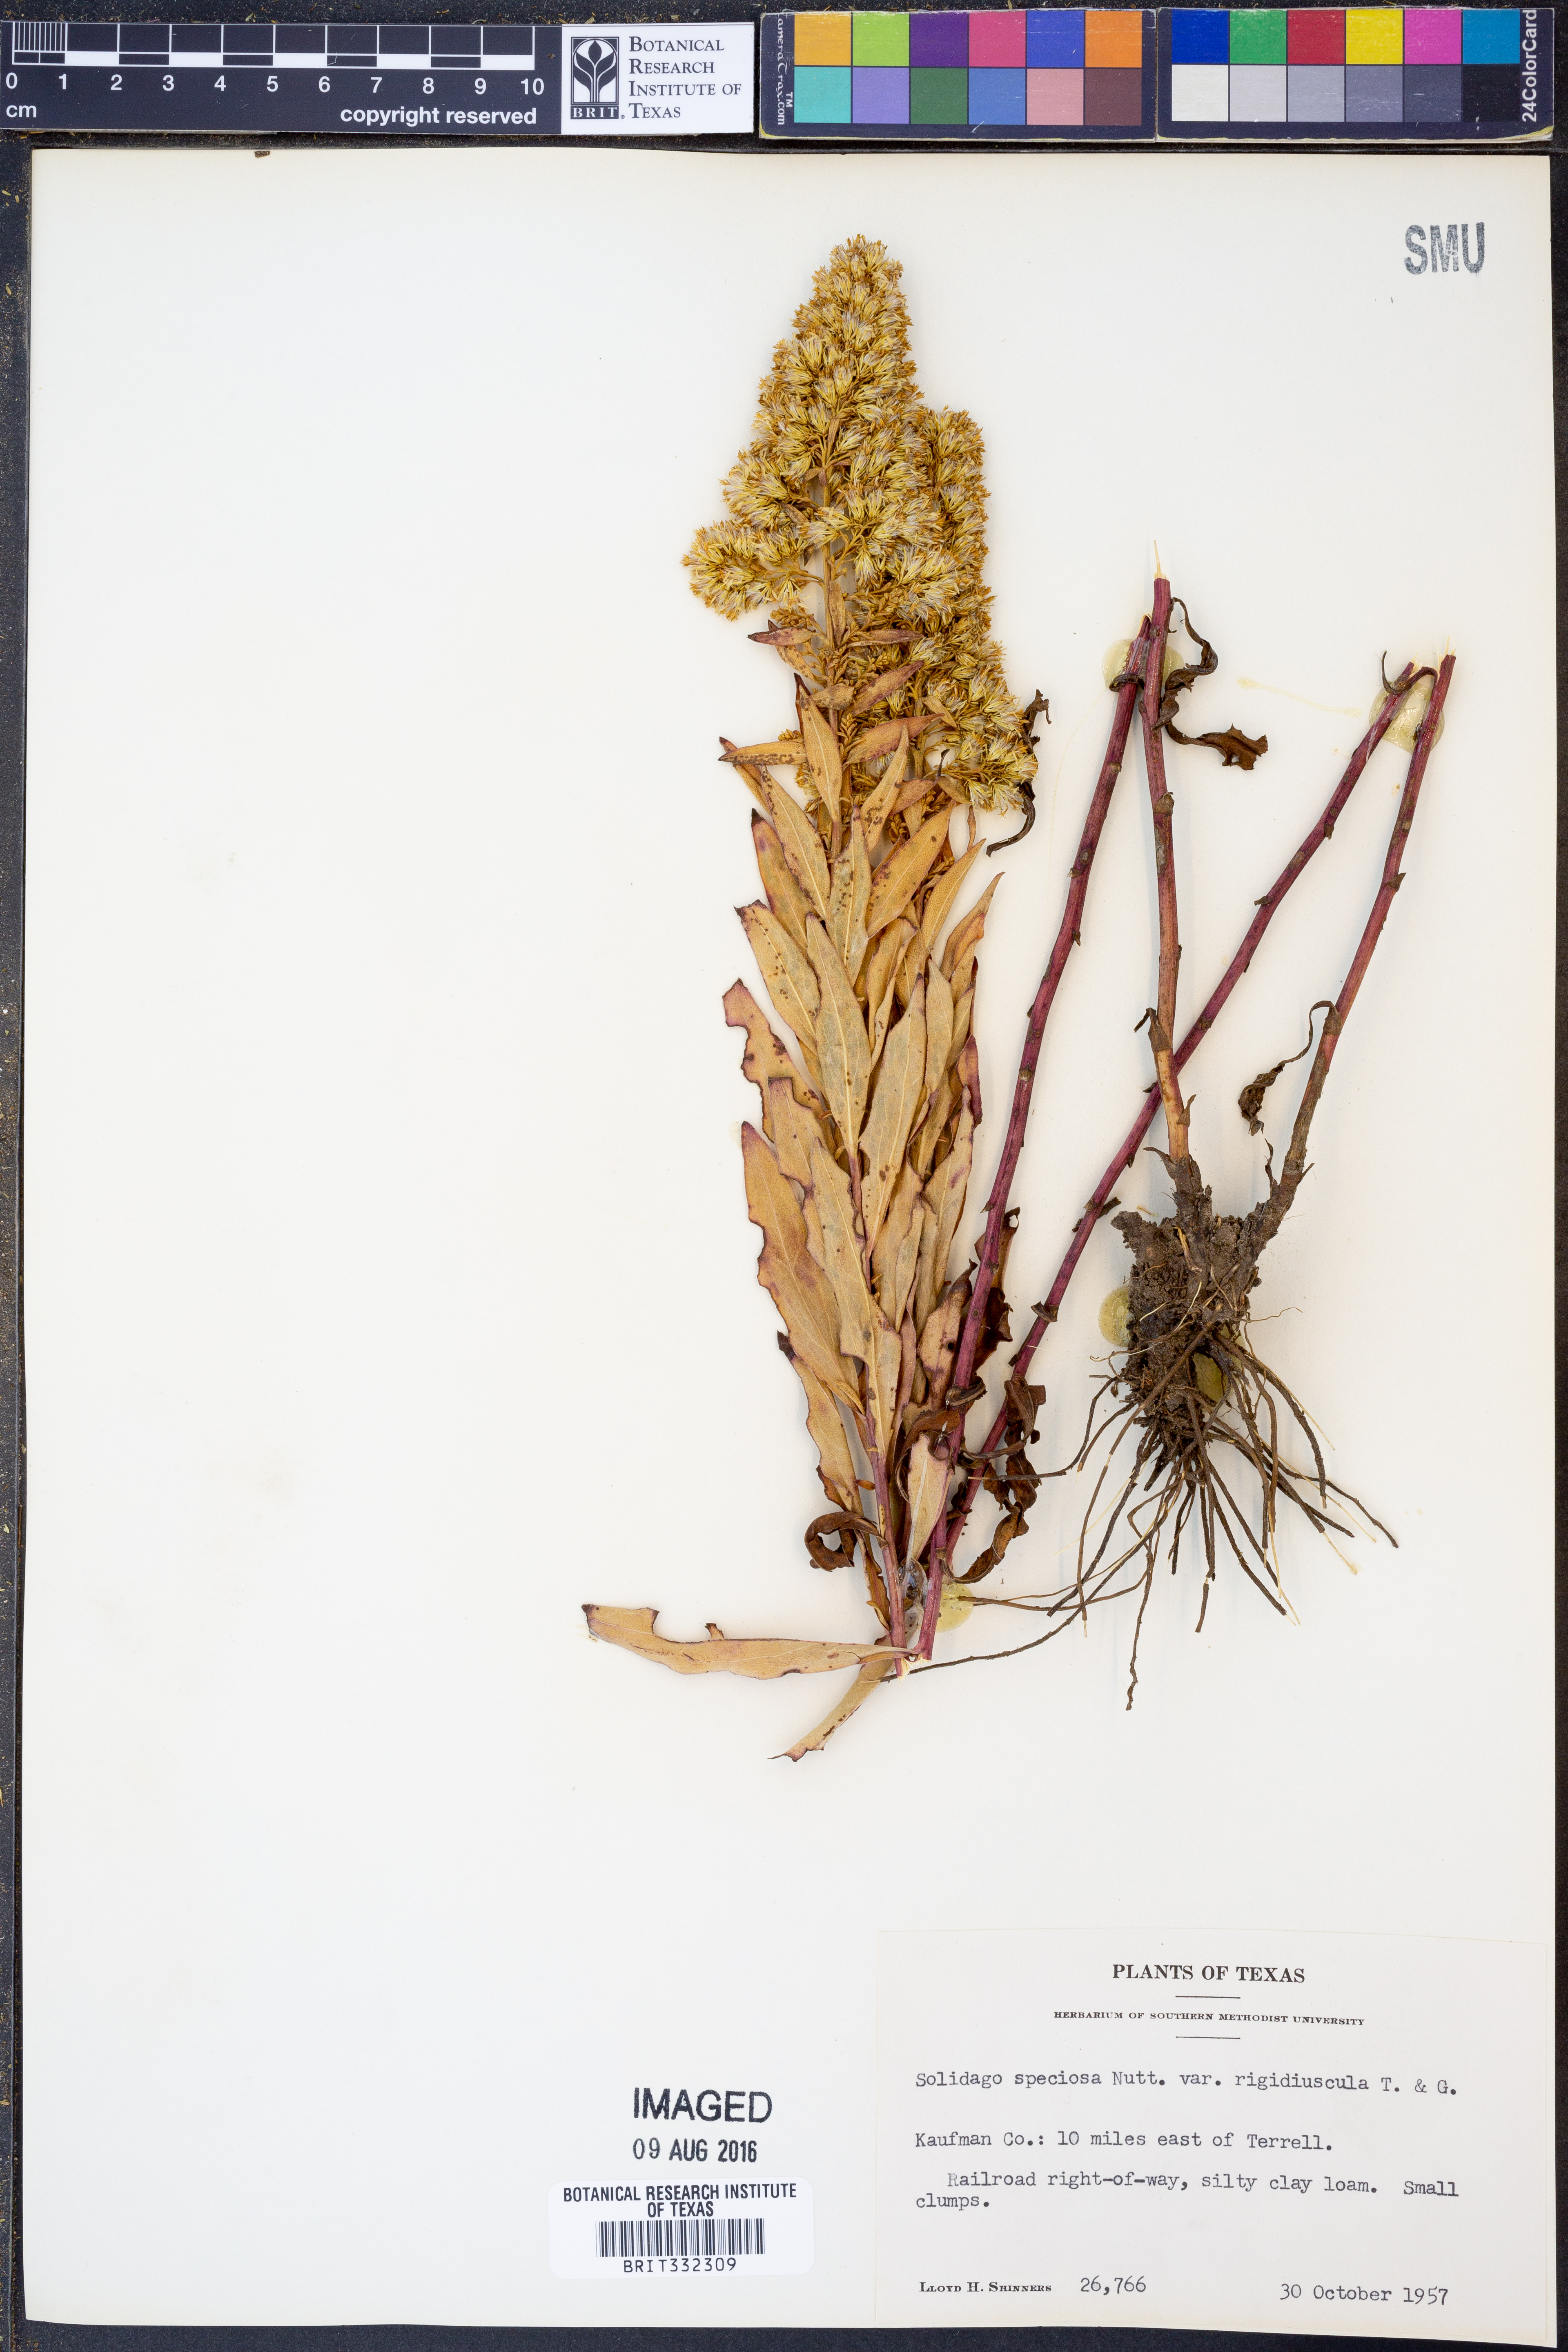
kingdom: Plantae
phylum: Tracheophyta
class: Magnoliopsida
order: Asterales
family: Asteraceae
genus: Solidago
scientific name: Solidago rigidiuscula
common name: Stiff-leaved showy goldenrod
